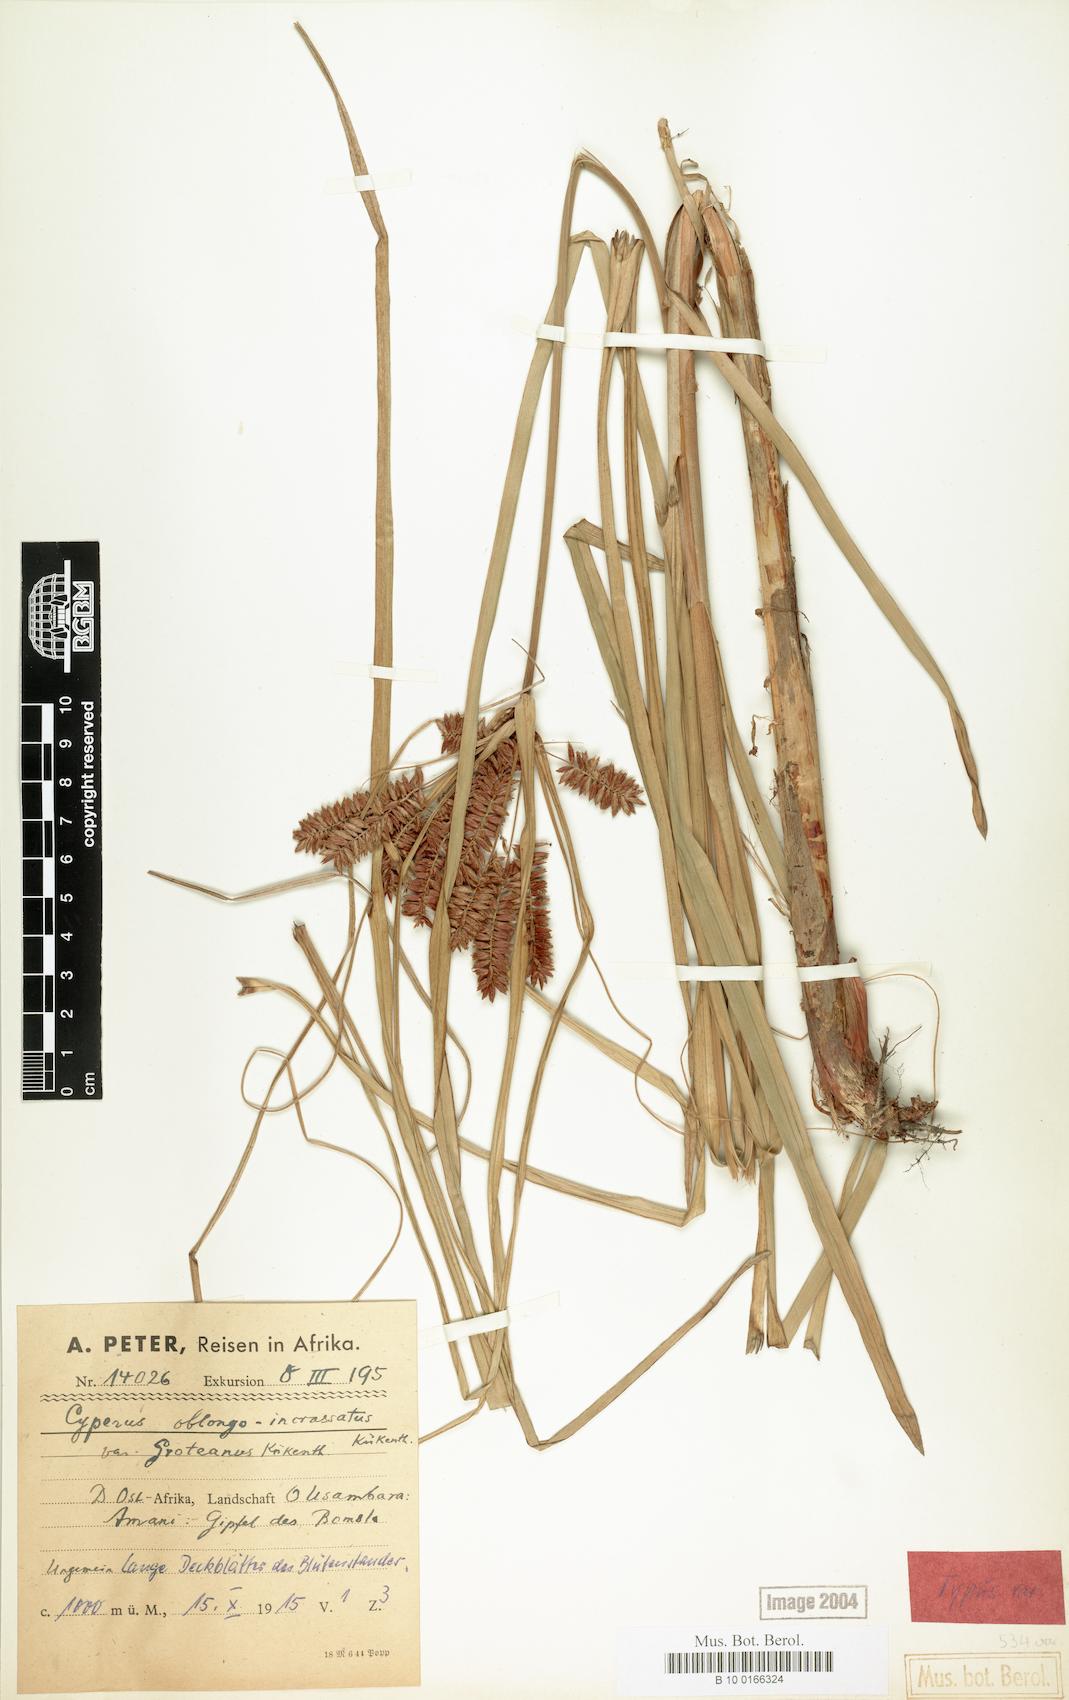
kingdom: Plantae
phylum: Tracheophyta
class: Liliopsida
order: Poales
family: Cyperaceae
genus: Cyperus
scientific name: Cyperus oblongoincrassatus
